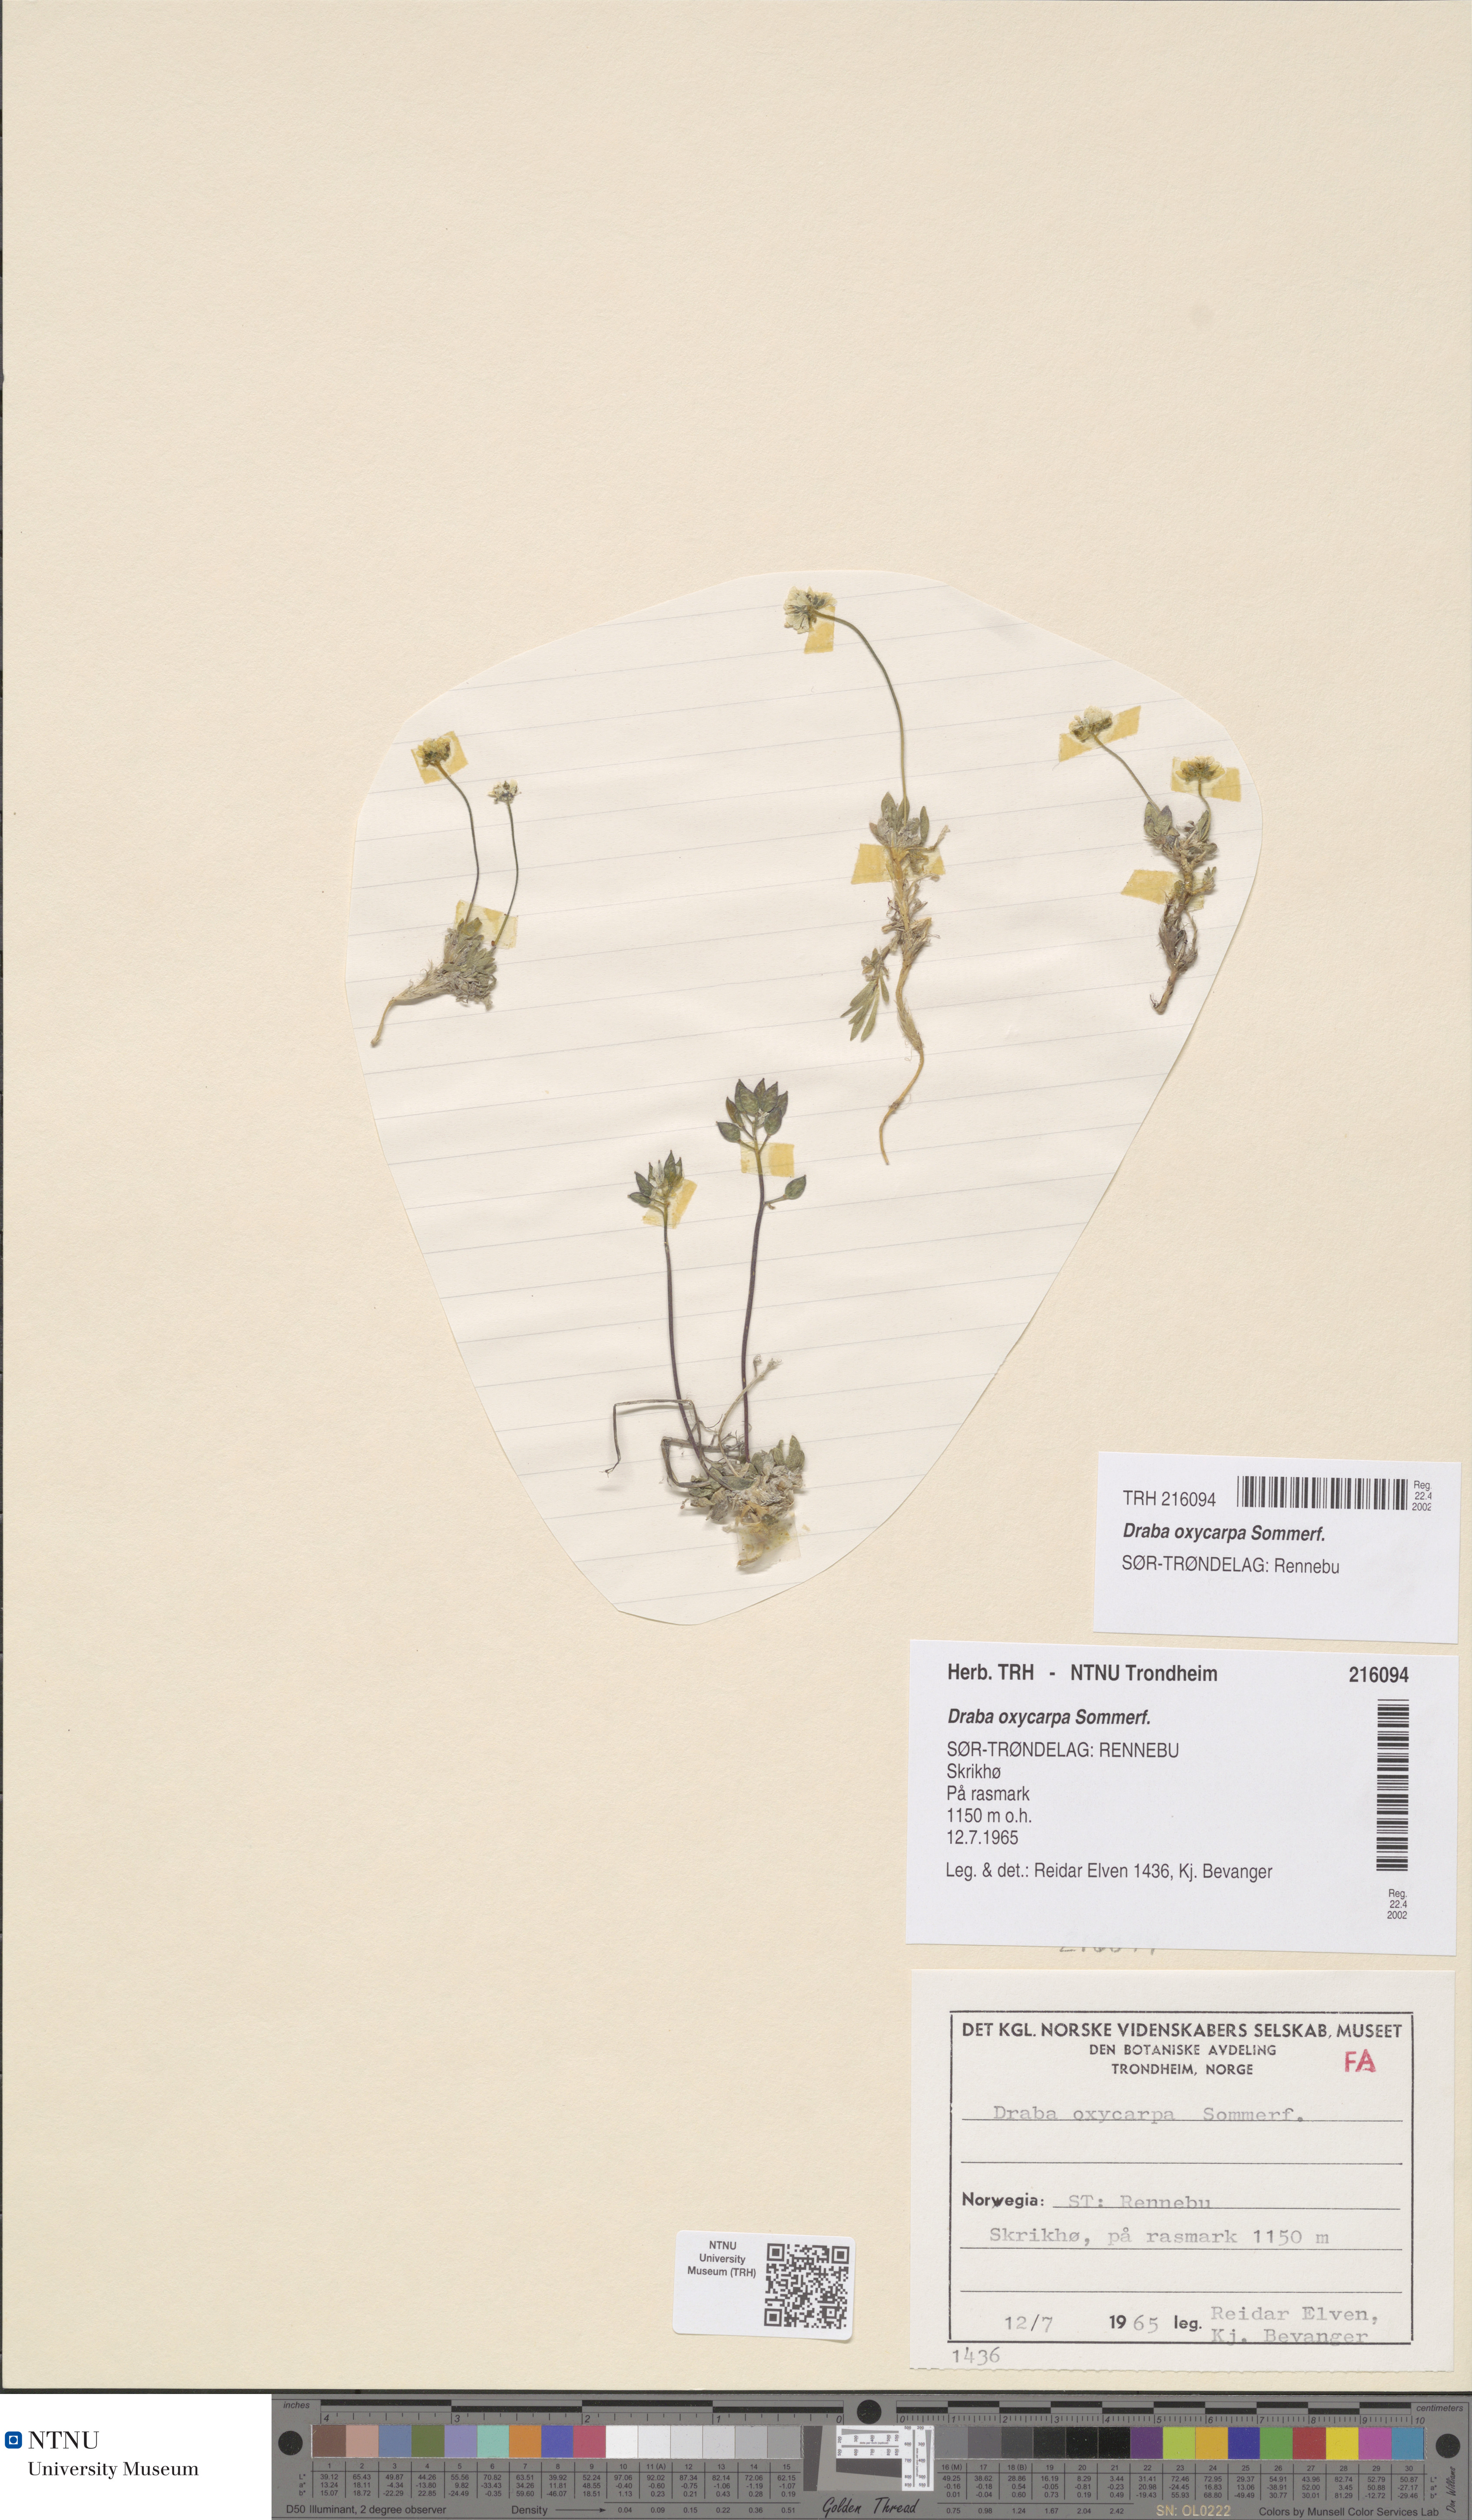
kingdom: Plantae
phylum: Tracheophyta
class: Magnoliopsida
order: Brassicales
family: Brassicaceae
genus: Draba
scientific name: Draba oxycarpa
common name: Sharp-fruited whitlow-grass
